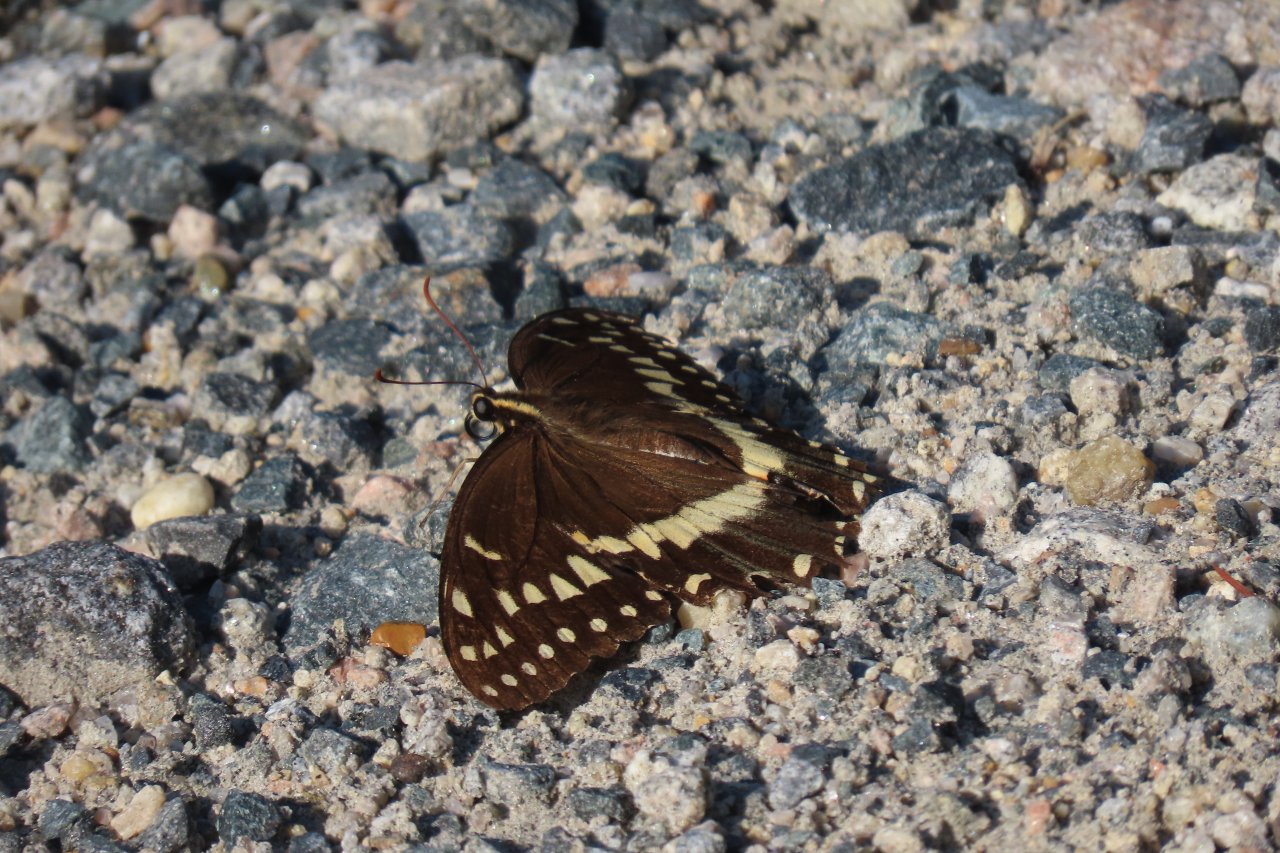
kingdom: Animalia
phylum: Arthropoda
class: Insecta
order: Lepidoptera
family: Papilionidae
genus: Pterourus
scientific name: Pterourus palamedes
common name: Palamedes Swallowtail
